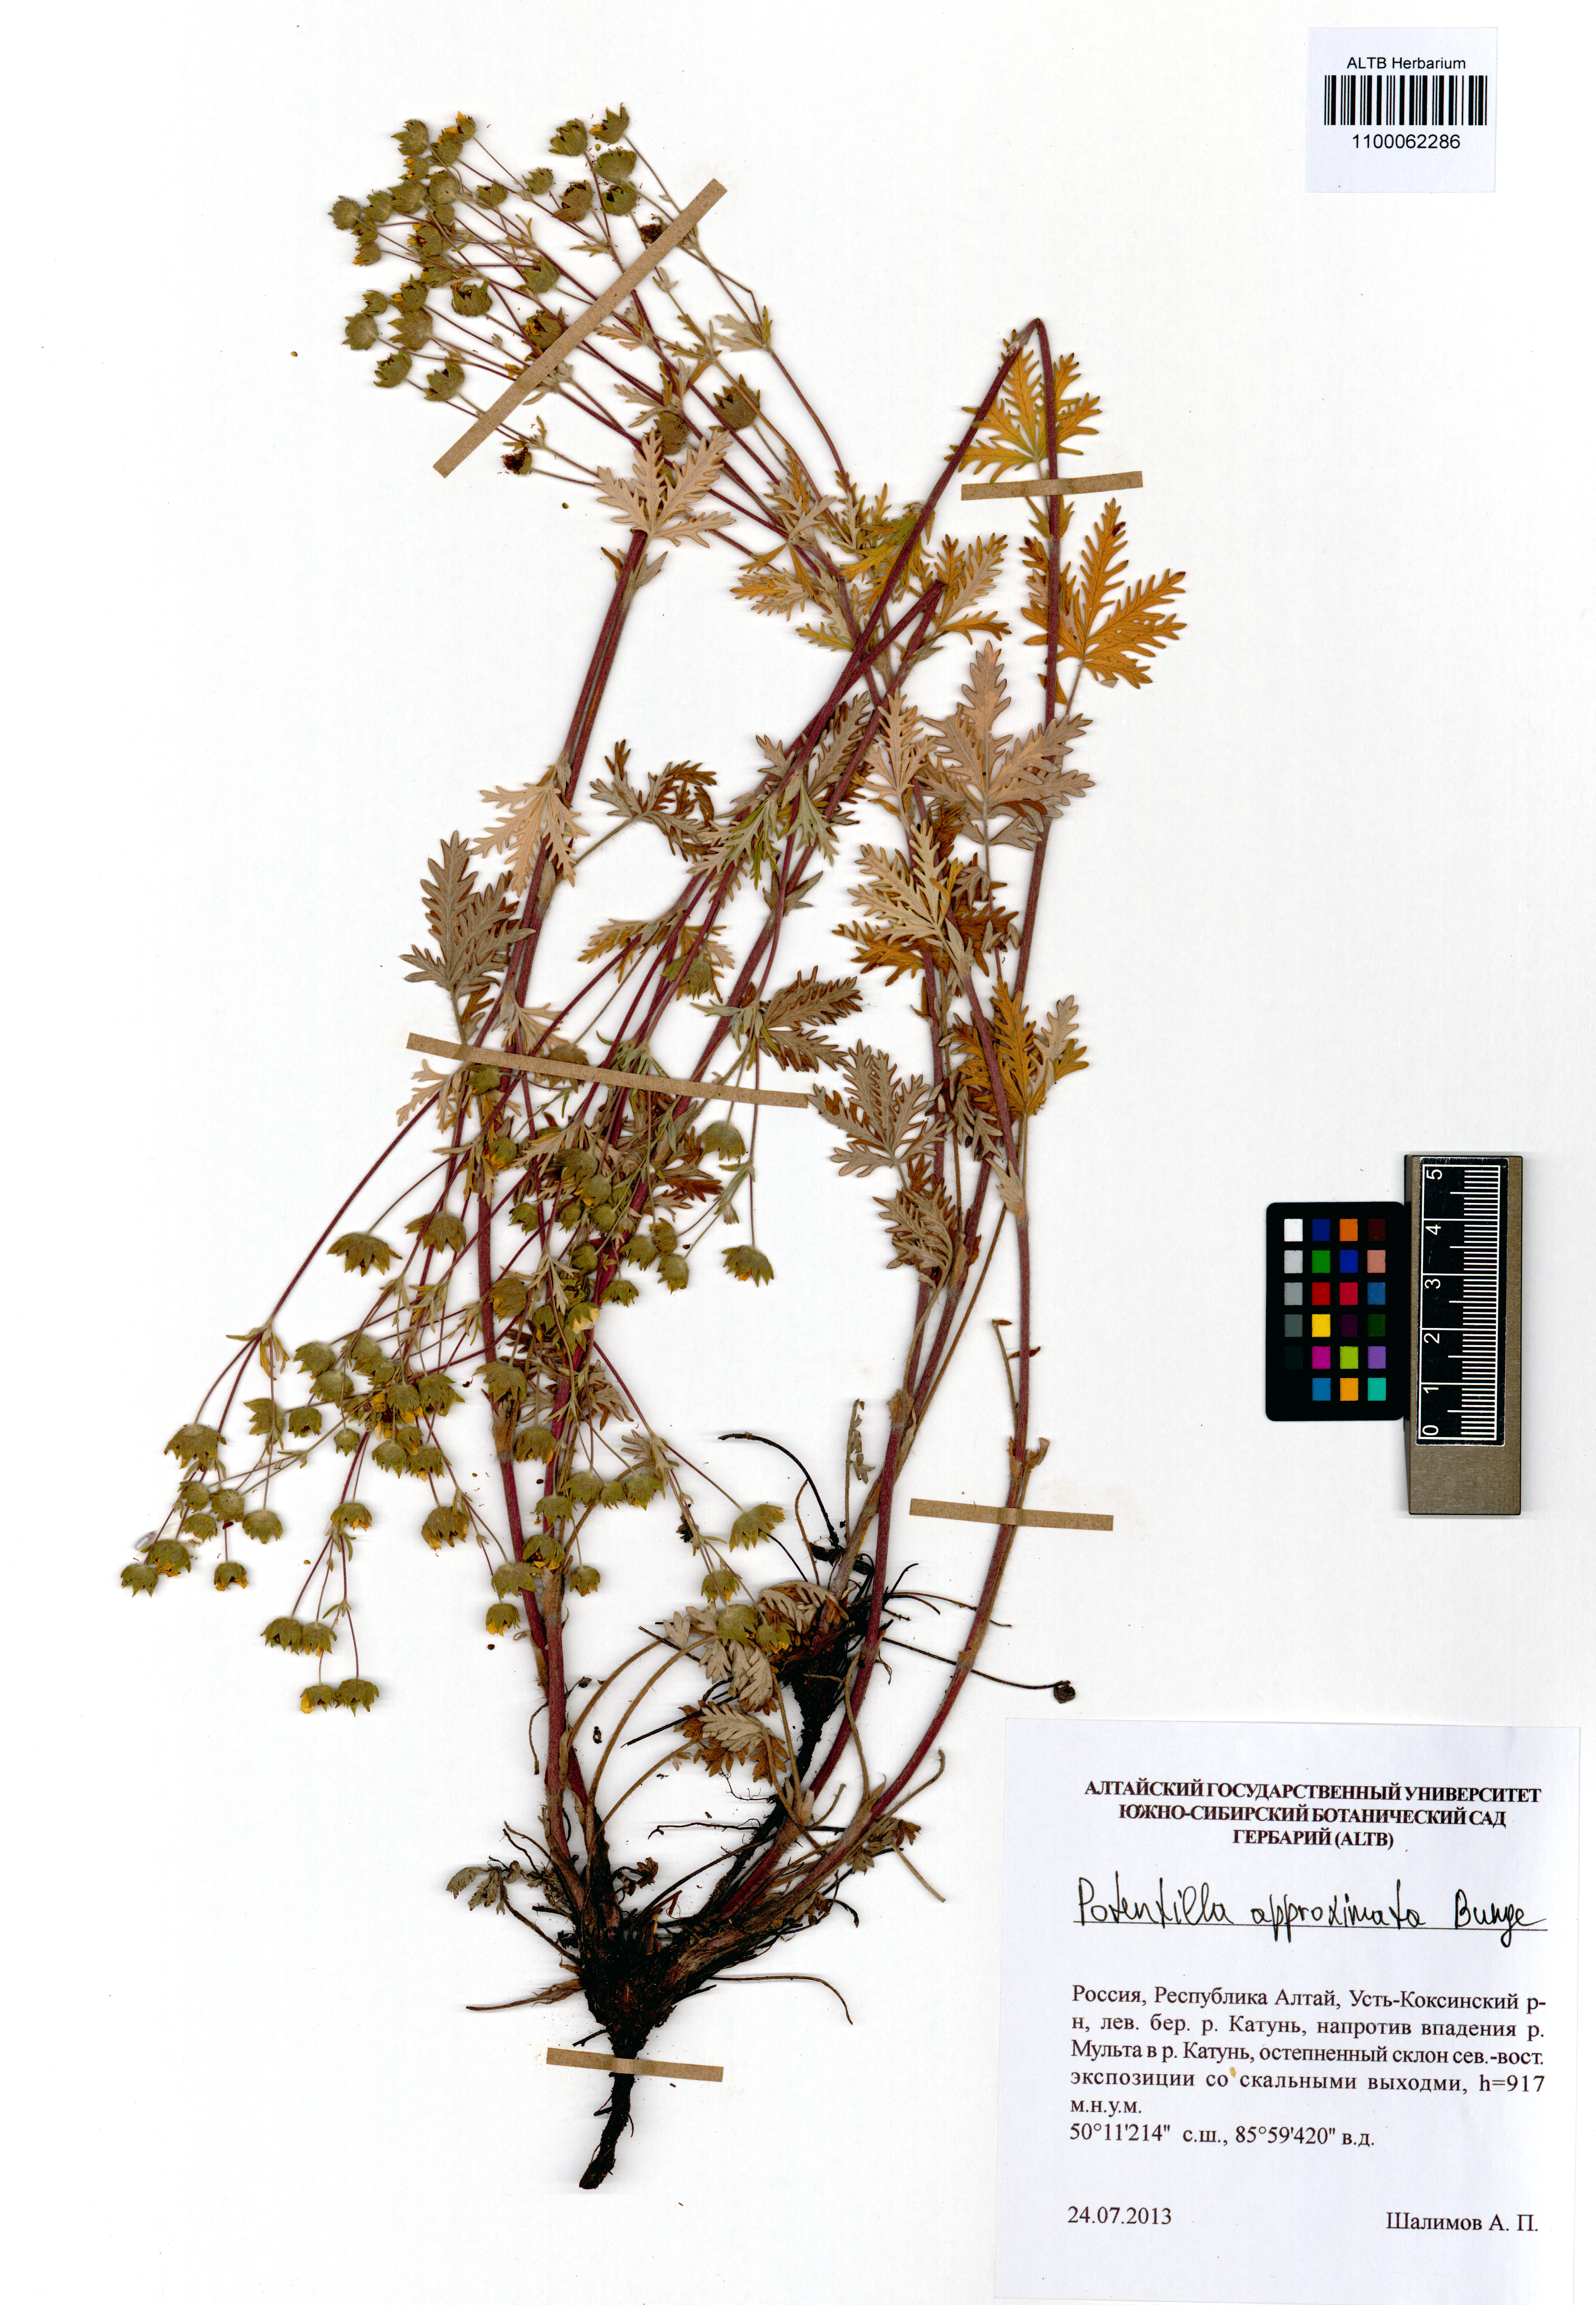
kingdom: Plantae
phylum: Tracheophyta
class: Magnoliopsida
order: Rosales
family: Rosaceae
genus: Potentilla
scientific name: Potentilla conferta
